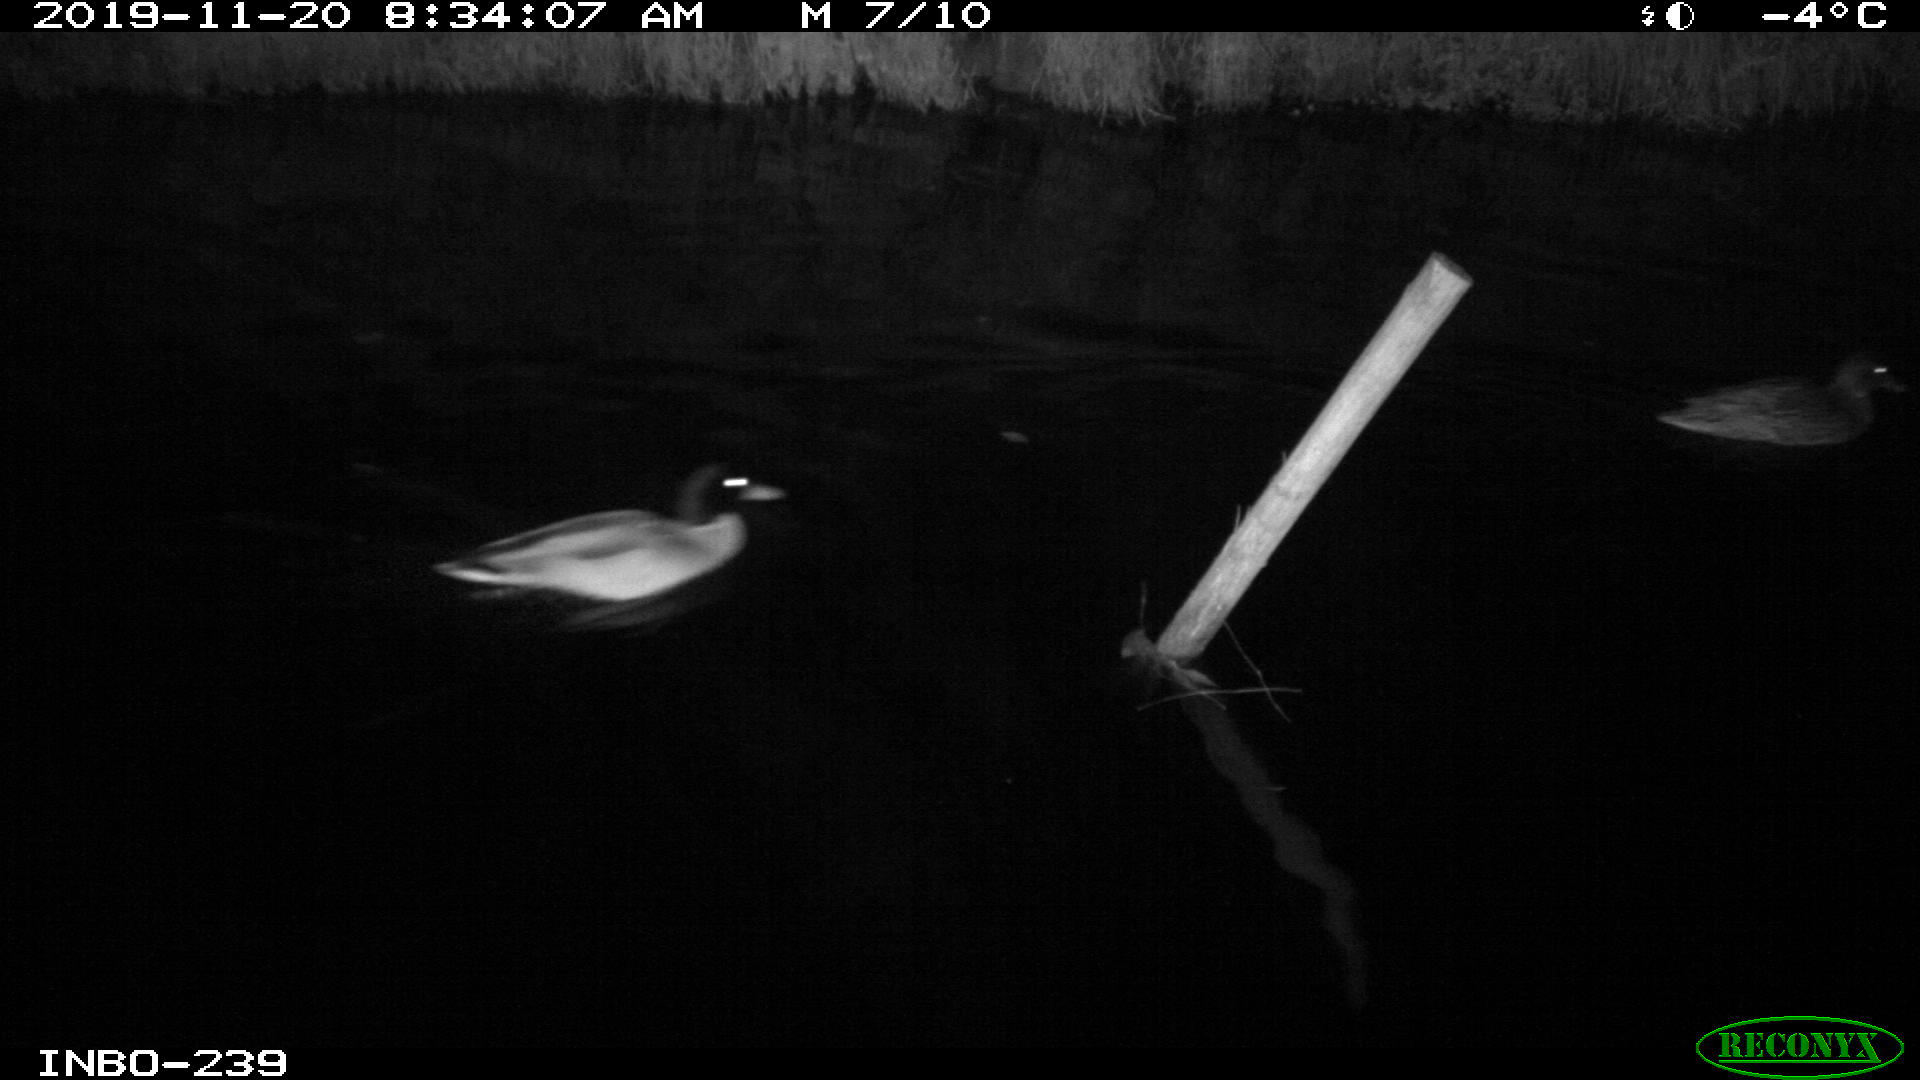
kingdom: Animalia
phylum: Chordata
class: Aves
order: Anseriformes
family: Anatidae
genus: Anas
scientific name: Anas platyrhynchos
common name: Mallard
